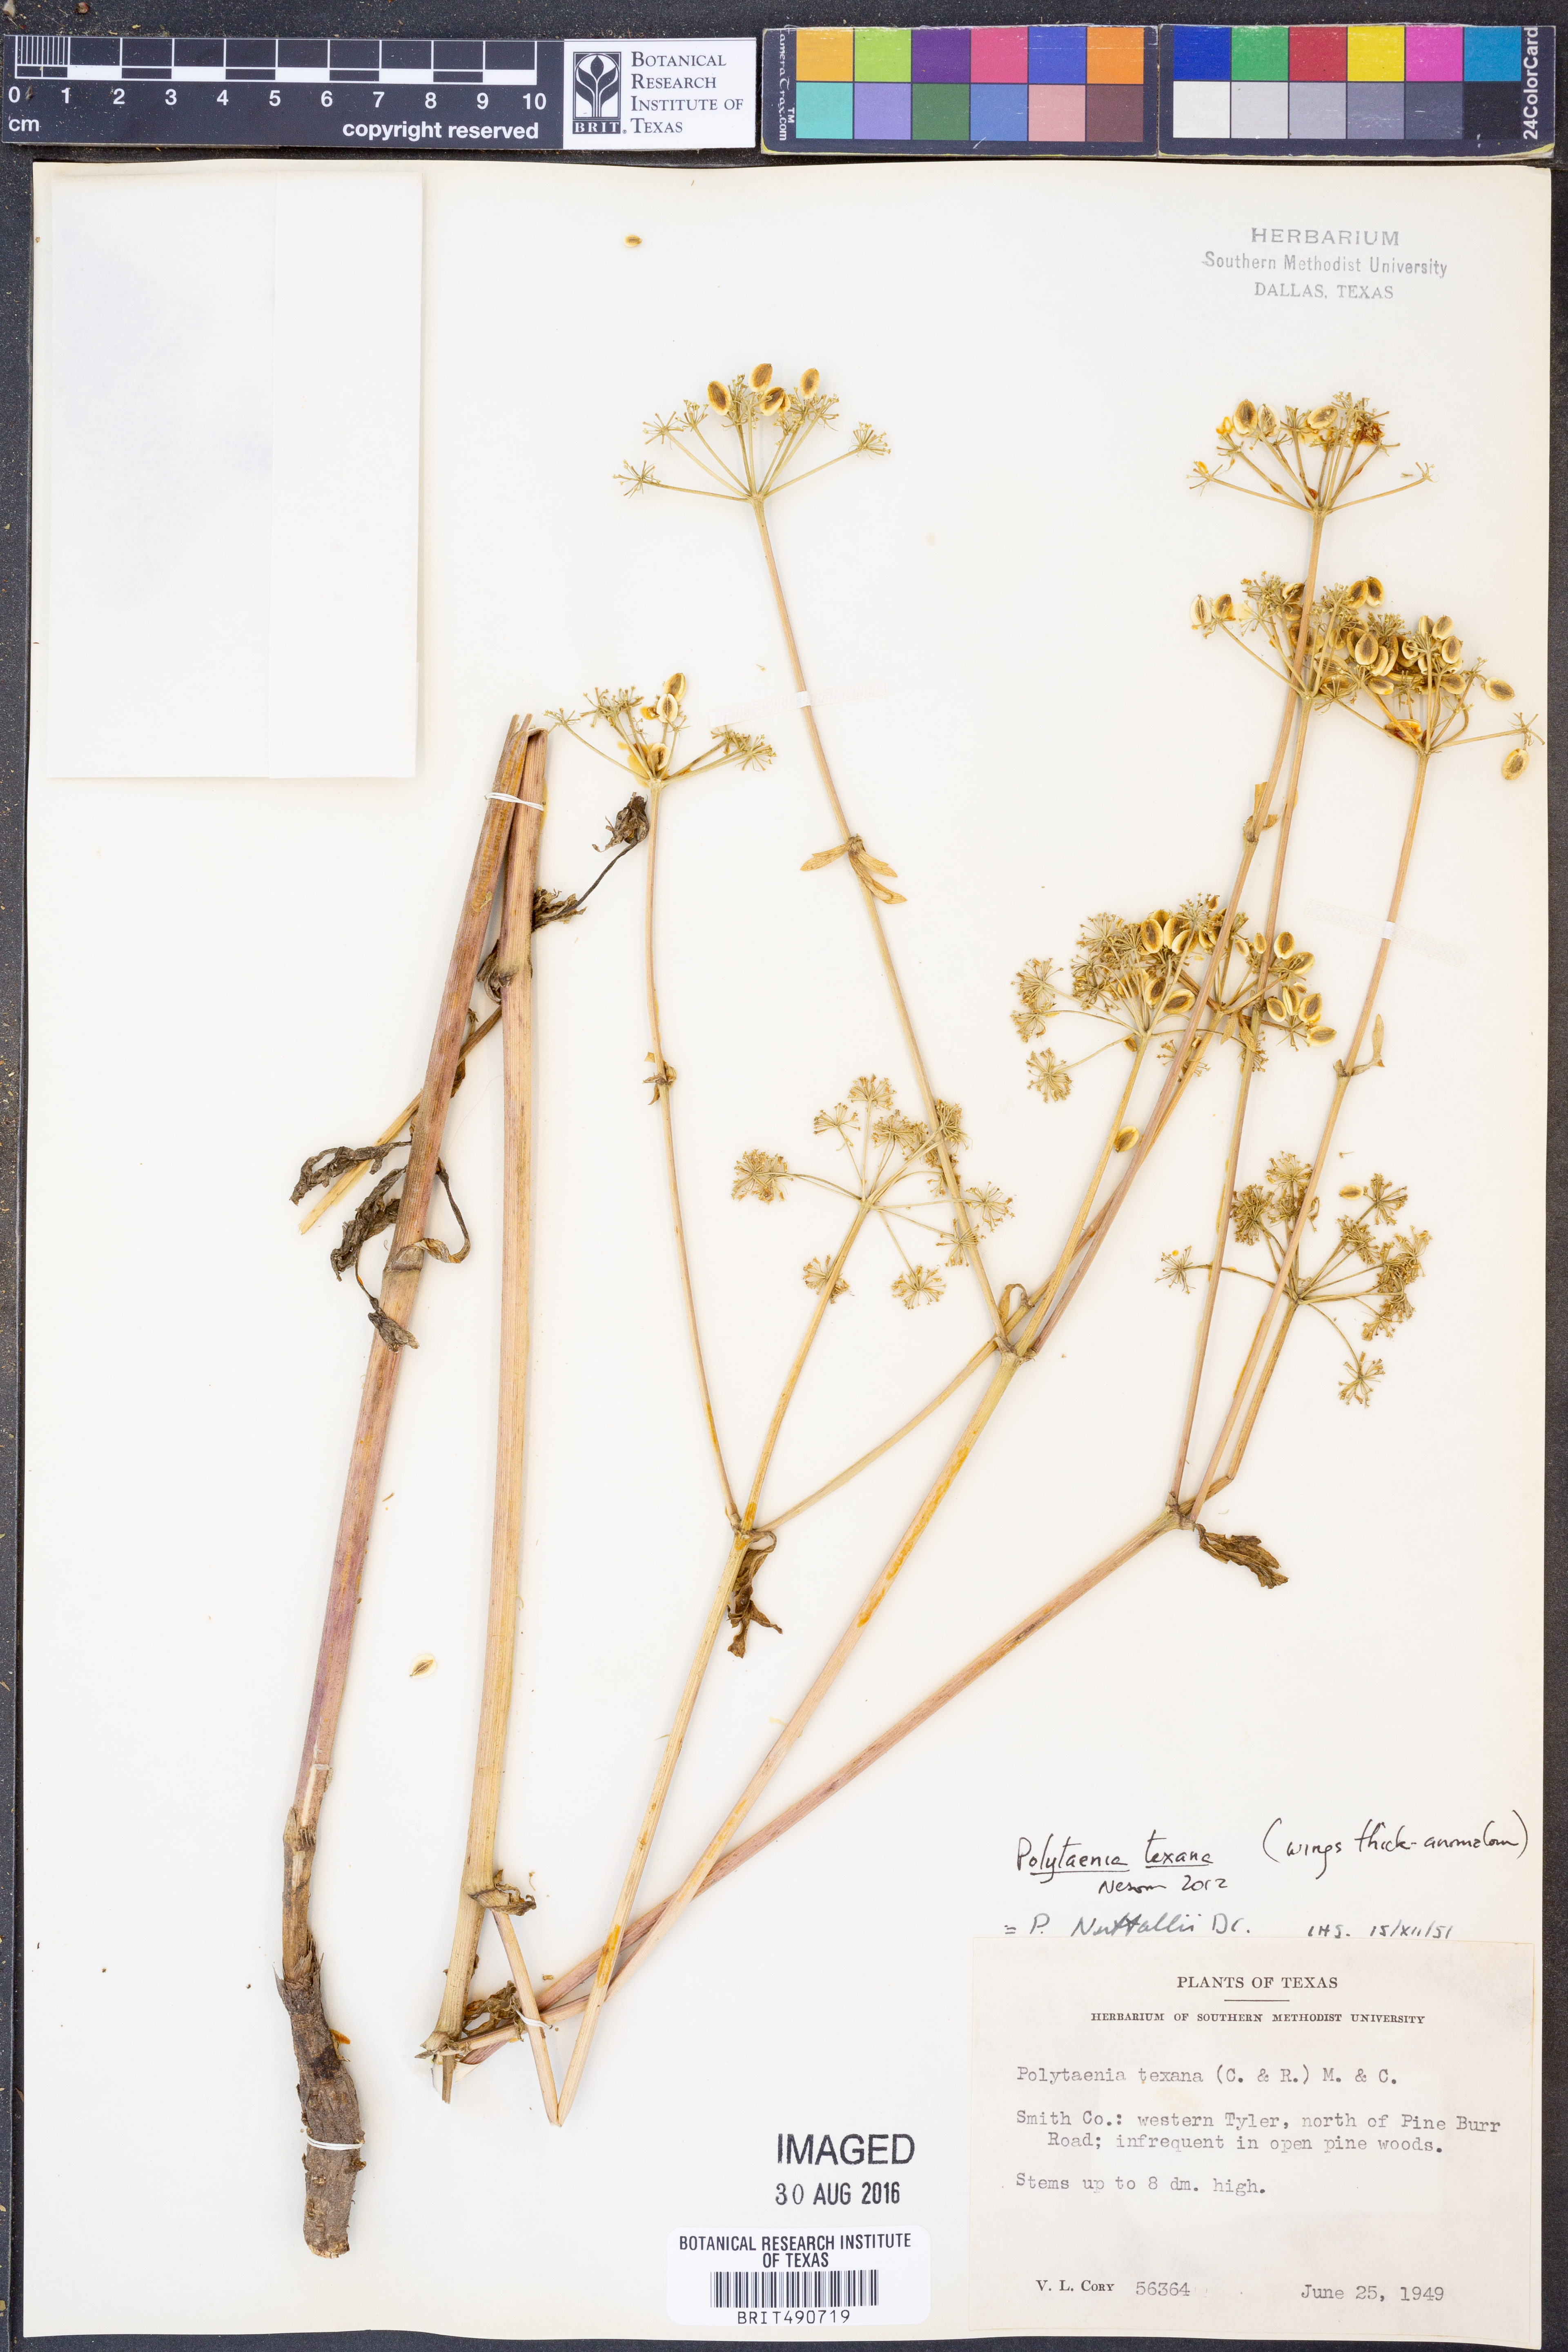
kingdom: Plantae
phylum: Tracheophyta
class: Magnoliopsida
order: Apiales
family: Apiaceae
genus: Polytaenia
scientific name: Polytaenia texana
